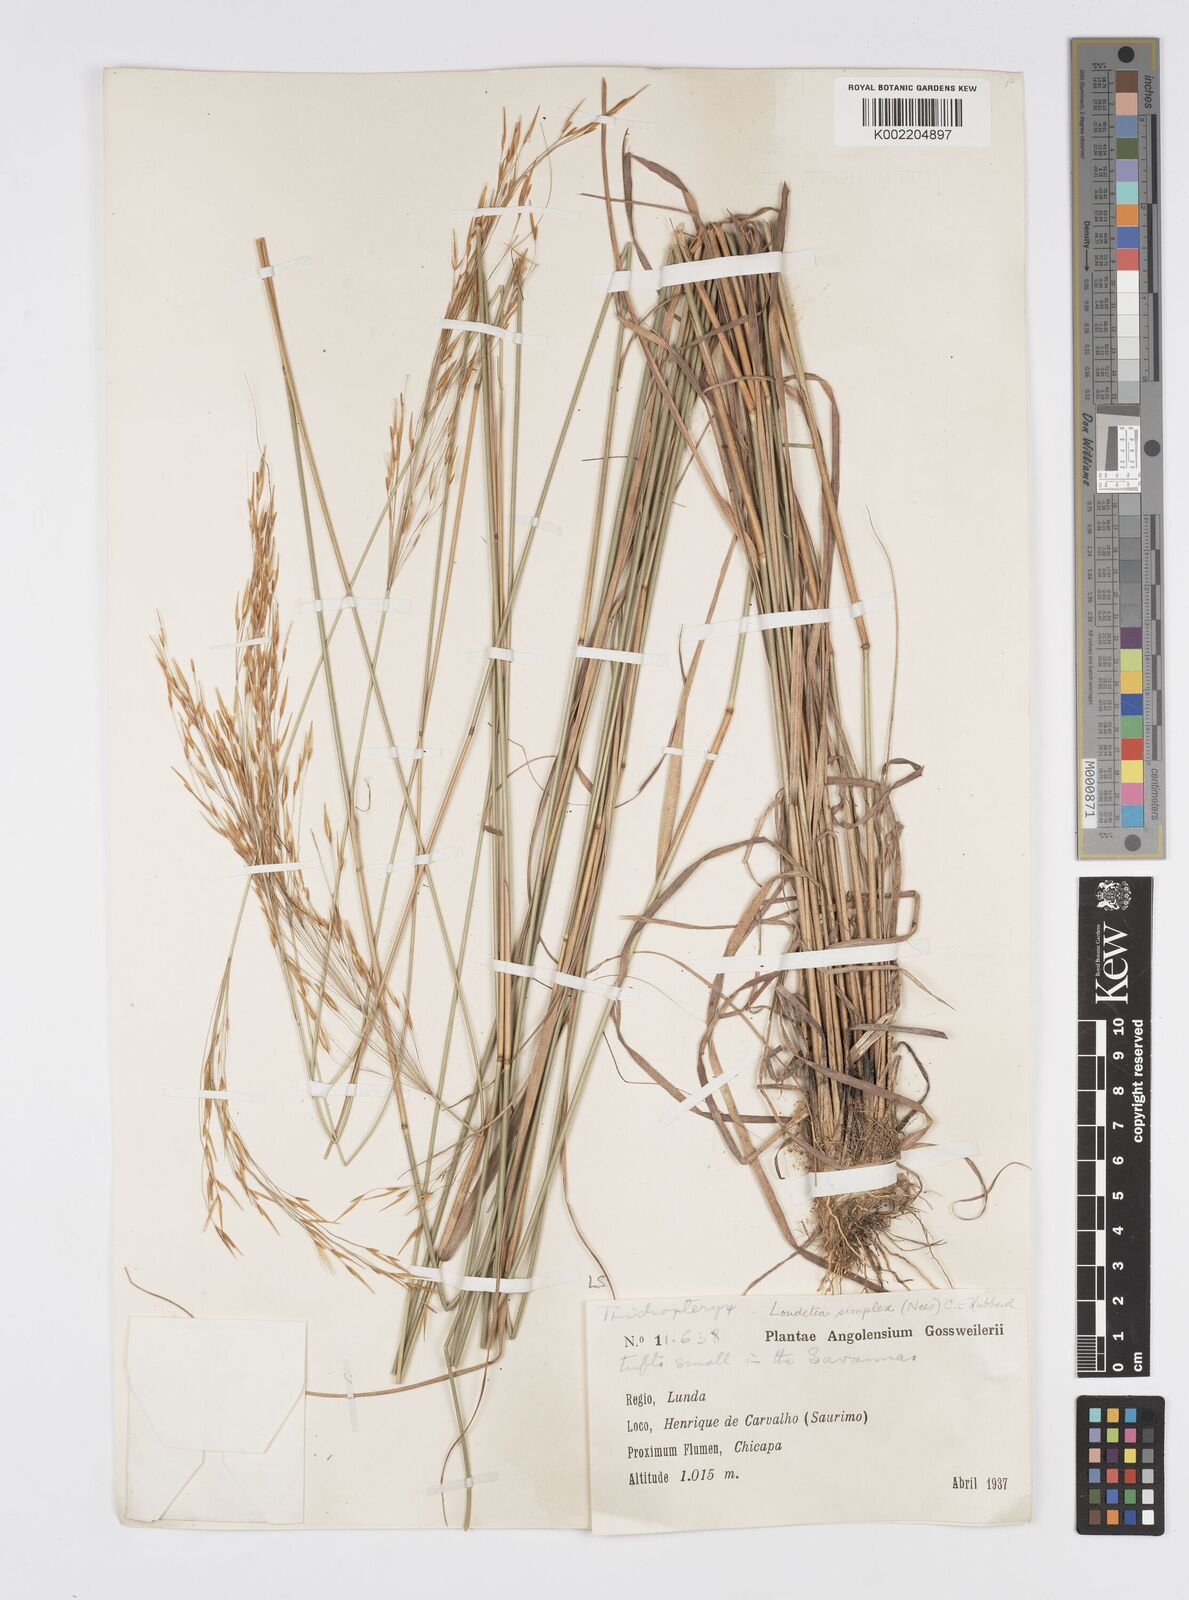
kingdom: Plantae
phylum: Tracheophyta
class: Liliopsida
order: Poales
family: Poaceae
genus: Loudetia
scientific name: Loudetia simplex
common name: Common russet grass
